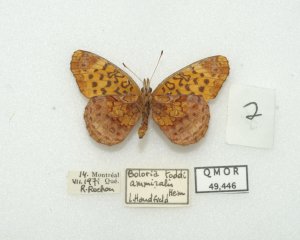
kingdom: Animalia
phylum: Arthropoda
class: Insecta
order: Lepidoptera
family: Nymphalidae
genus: Clossiana
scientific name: Clossiana toddi
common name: Meadow Fritillary
